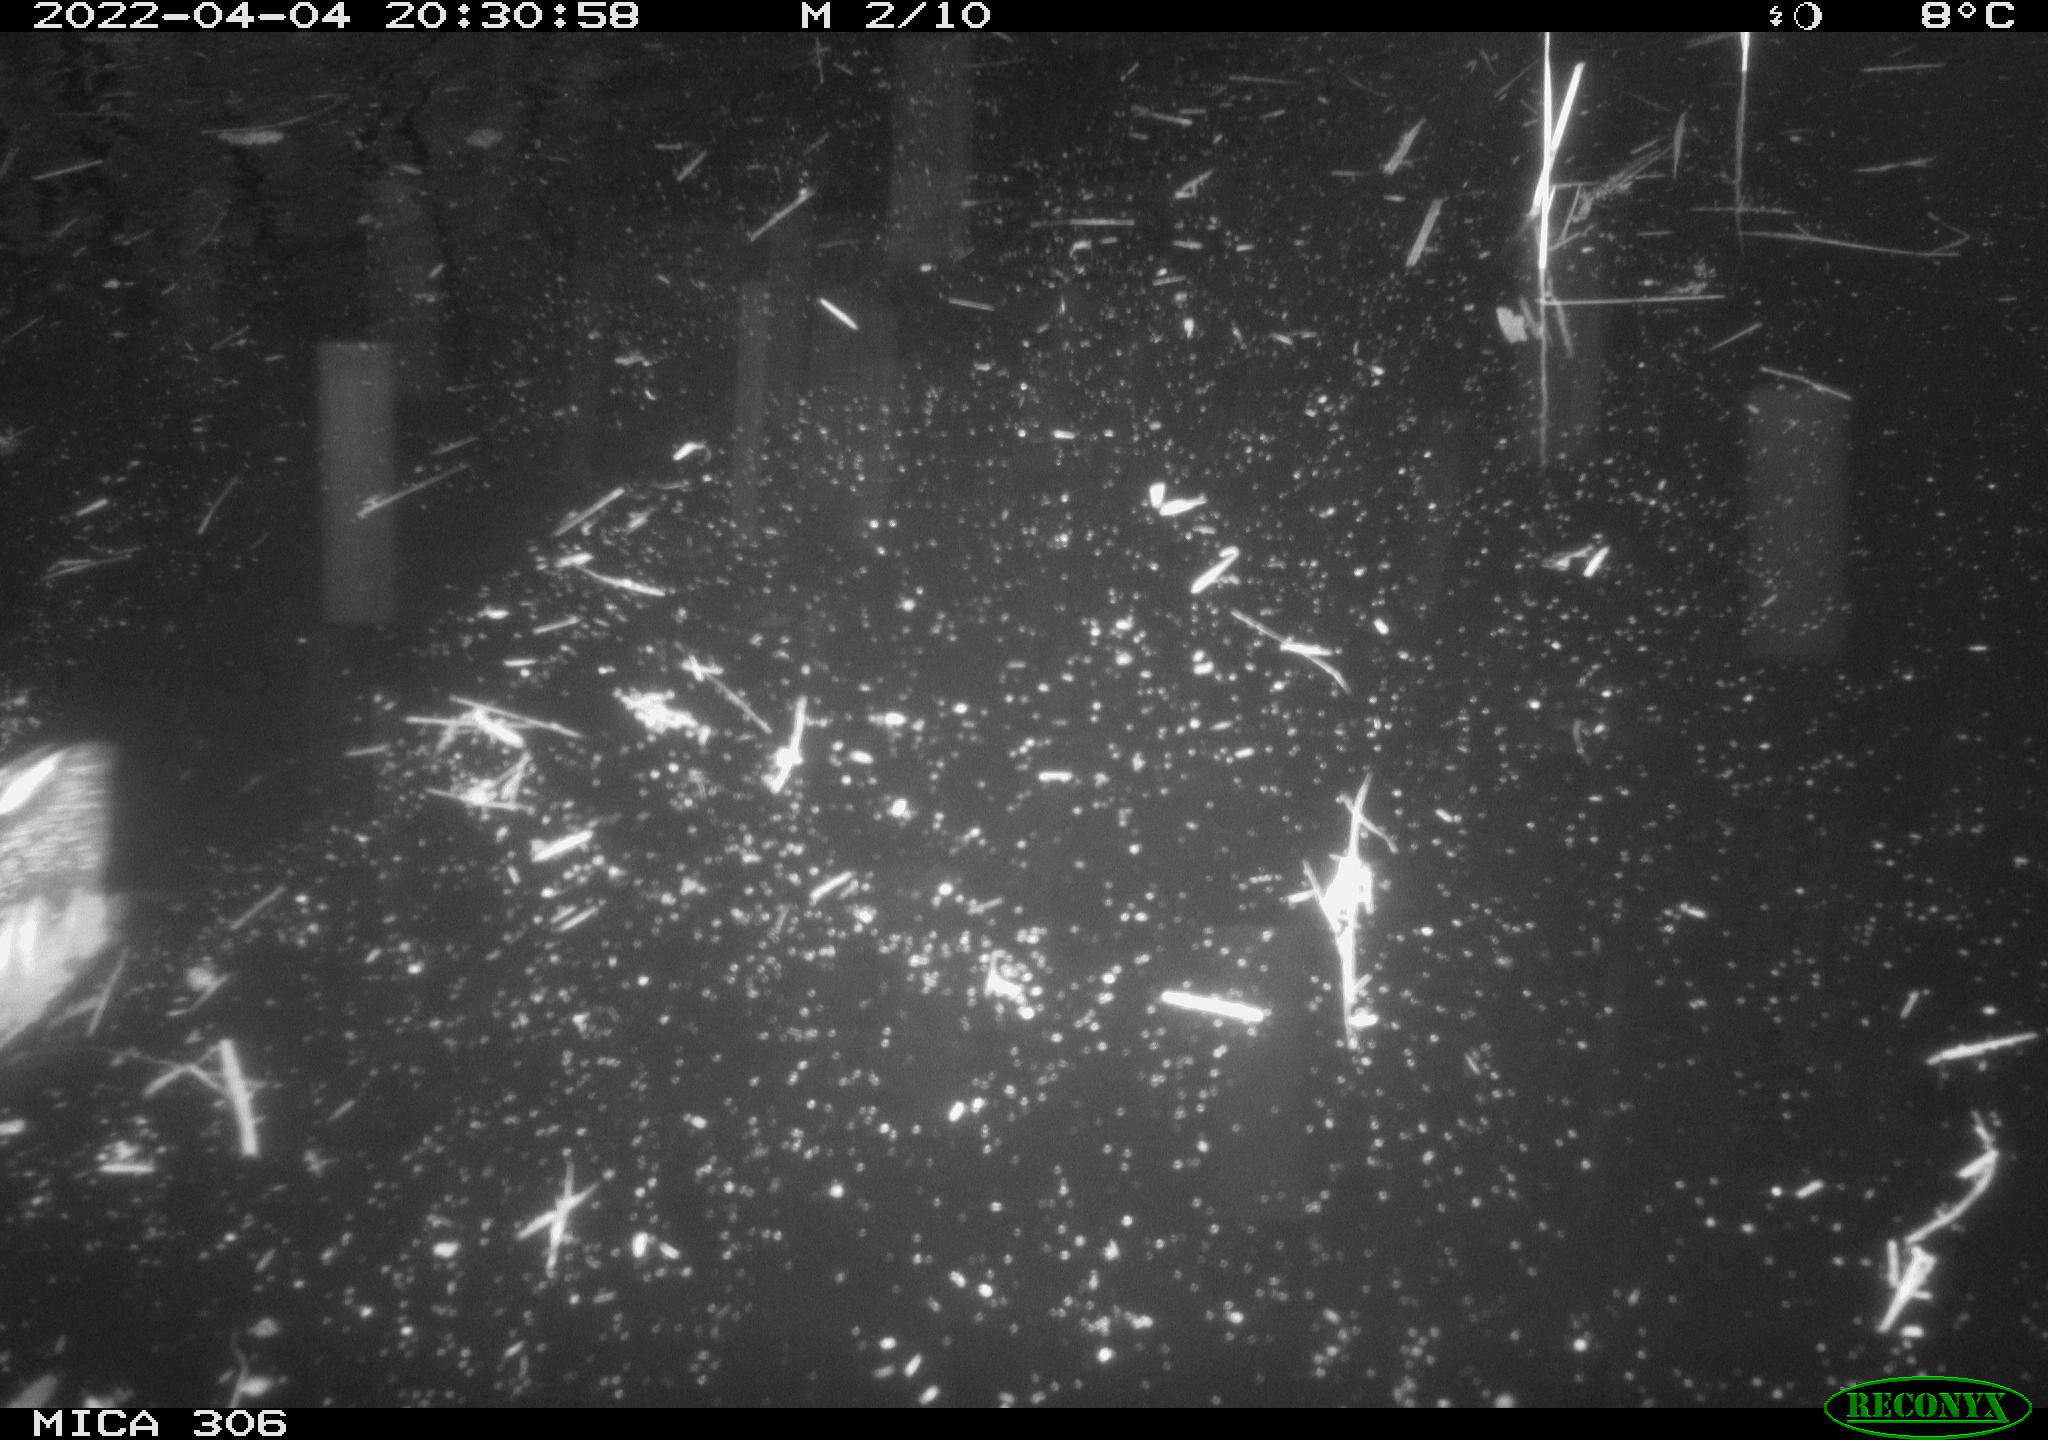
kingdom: Animalia
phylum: Chordata
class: Aves
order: Gruiformes
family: Rallidae
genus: Gallinula
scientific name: Gallinula chloropus
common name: Common moorhen
